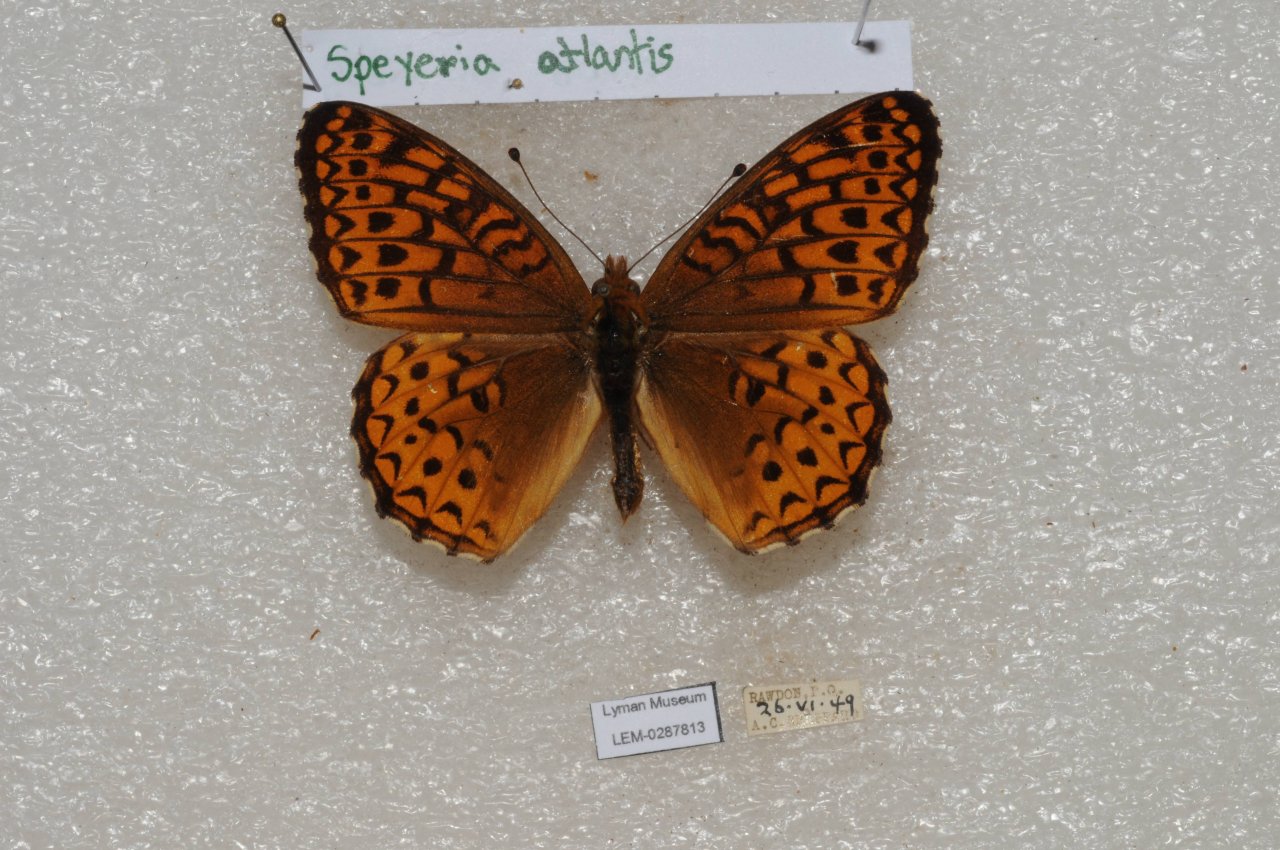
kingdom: Animalia
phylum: Arthropoda
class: Insecta
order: Lepidoptera
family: Nymphalidae
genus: Speyeria
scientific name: Speyeria atlantis
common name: Atlantis Fritillary
